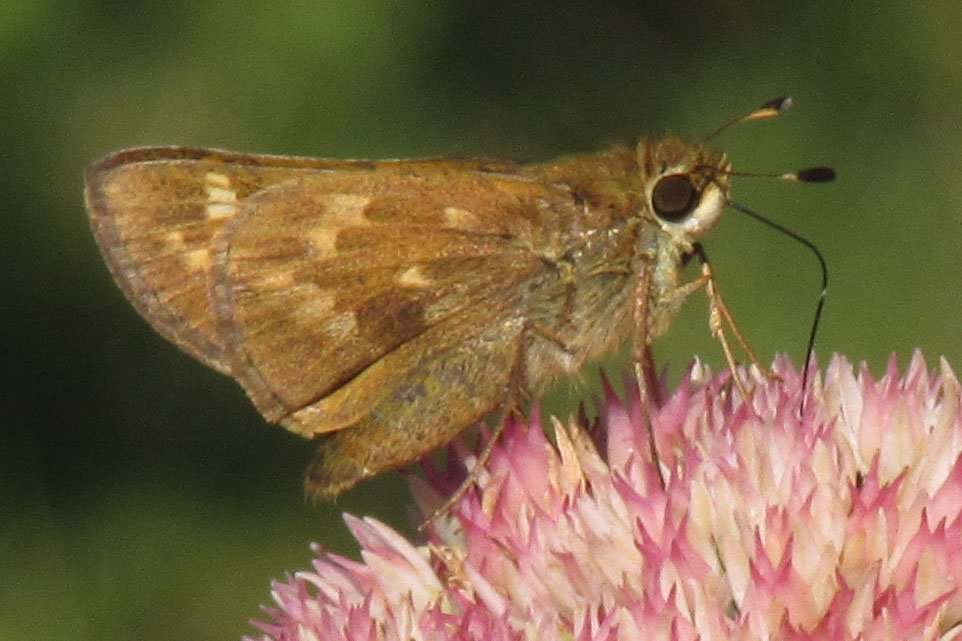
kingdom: Animalia
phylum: Arthropoda
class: Insecta
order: Lepidoptera
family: Hesperiidae
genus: Atalopedes
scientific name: Atalopedes campestris
